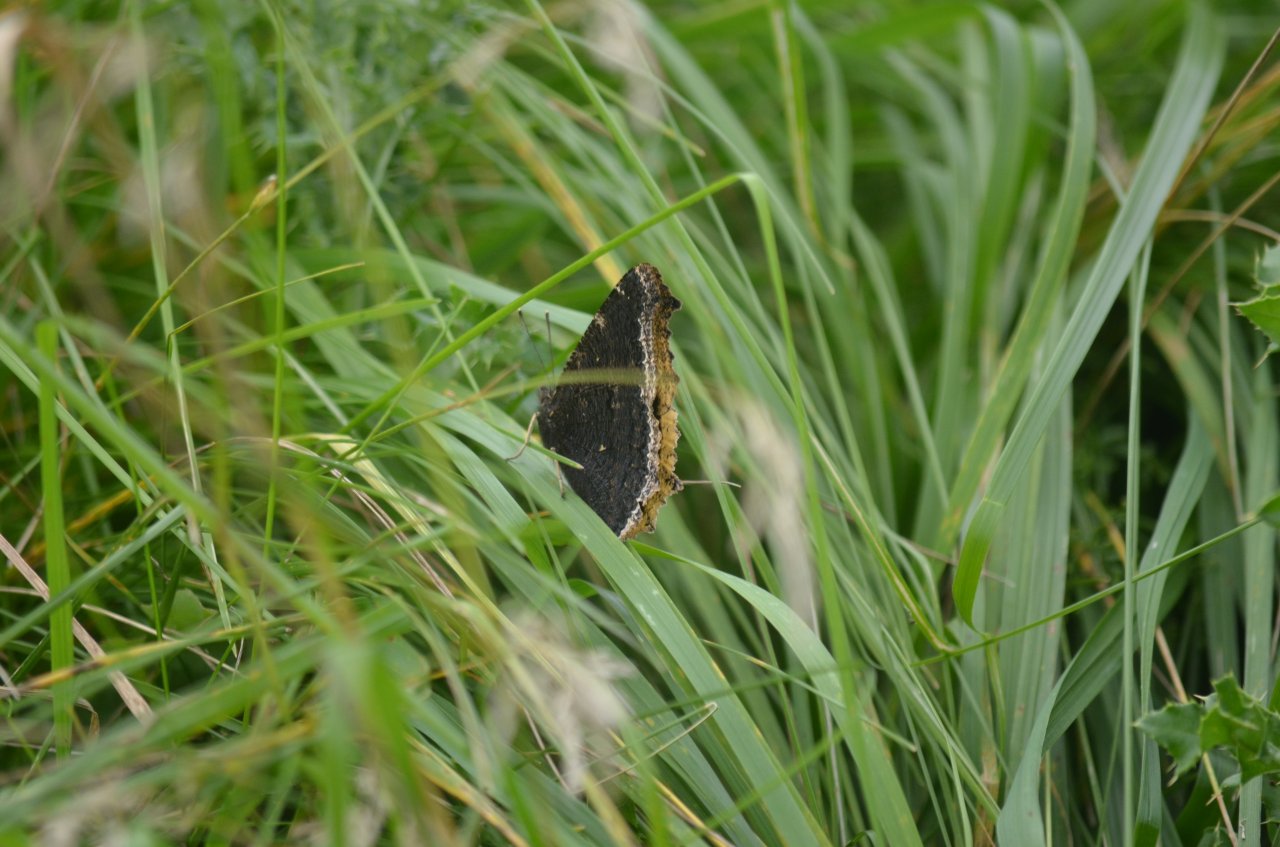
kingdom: Animalia
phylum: Arthropoda
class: Insecta
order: Lepidoptera
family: Nymphalidae
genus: Nymphalis
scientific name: Nymphalis antiopa
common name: Mourning Cloak
